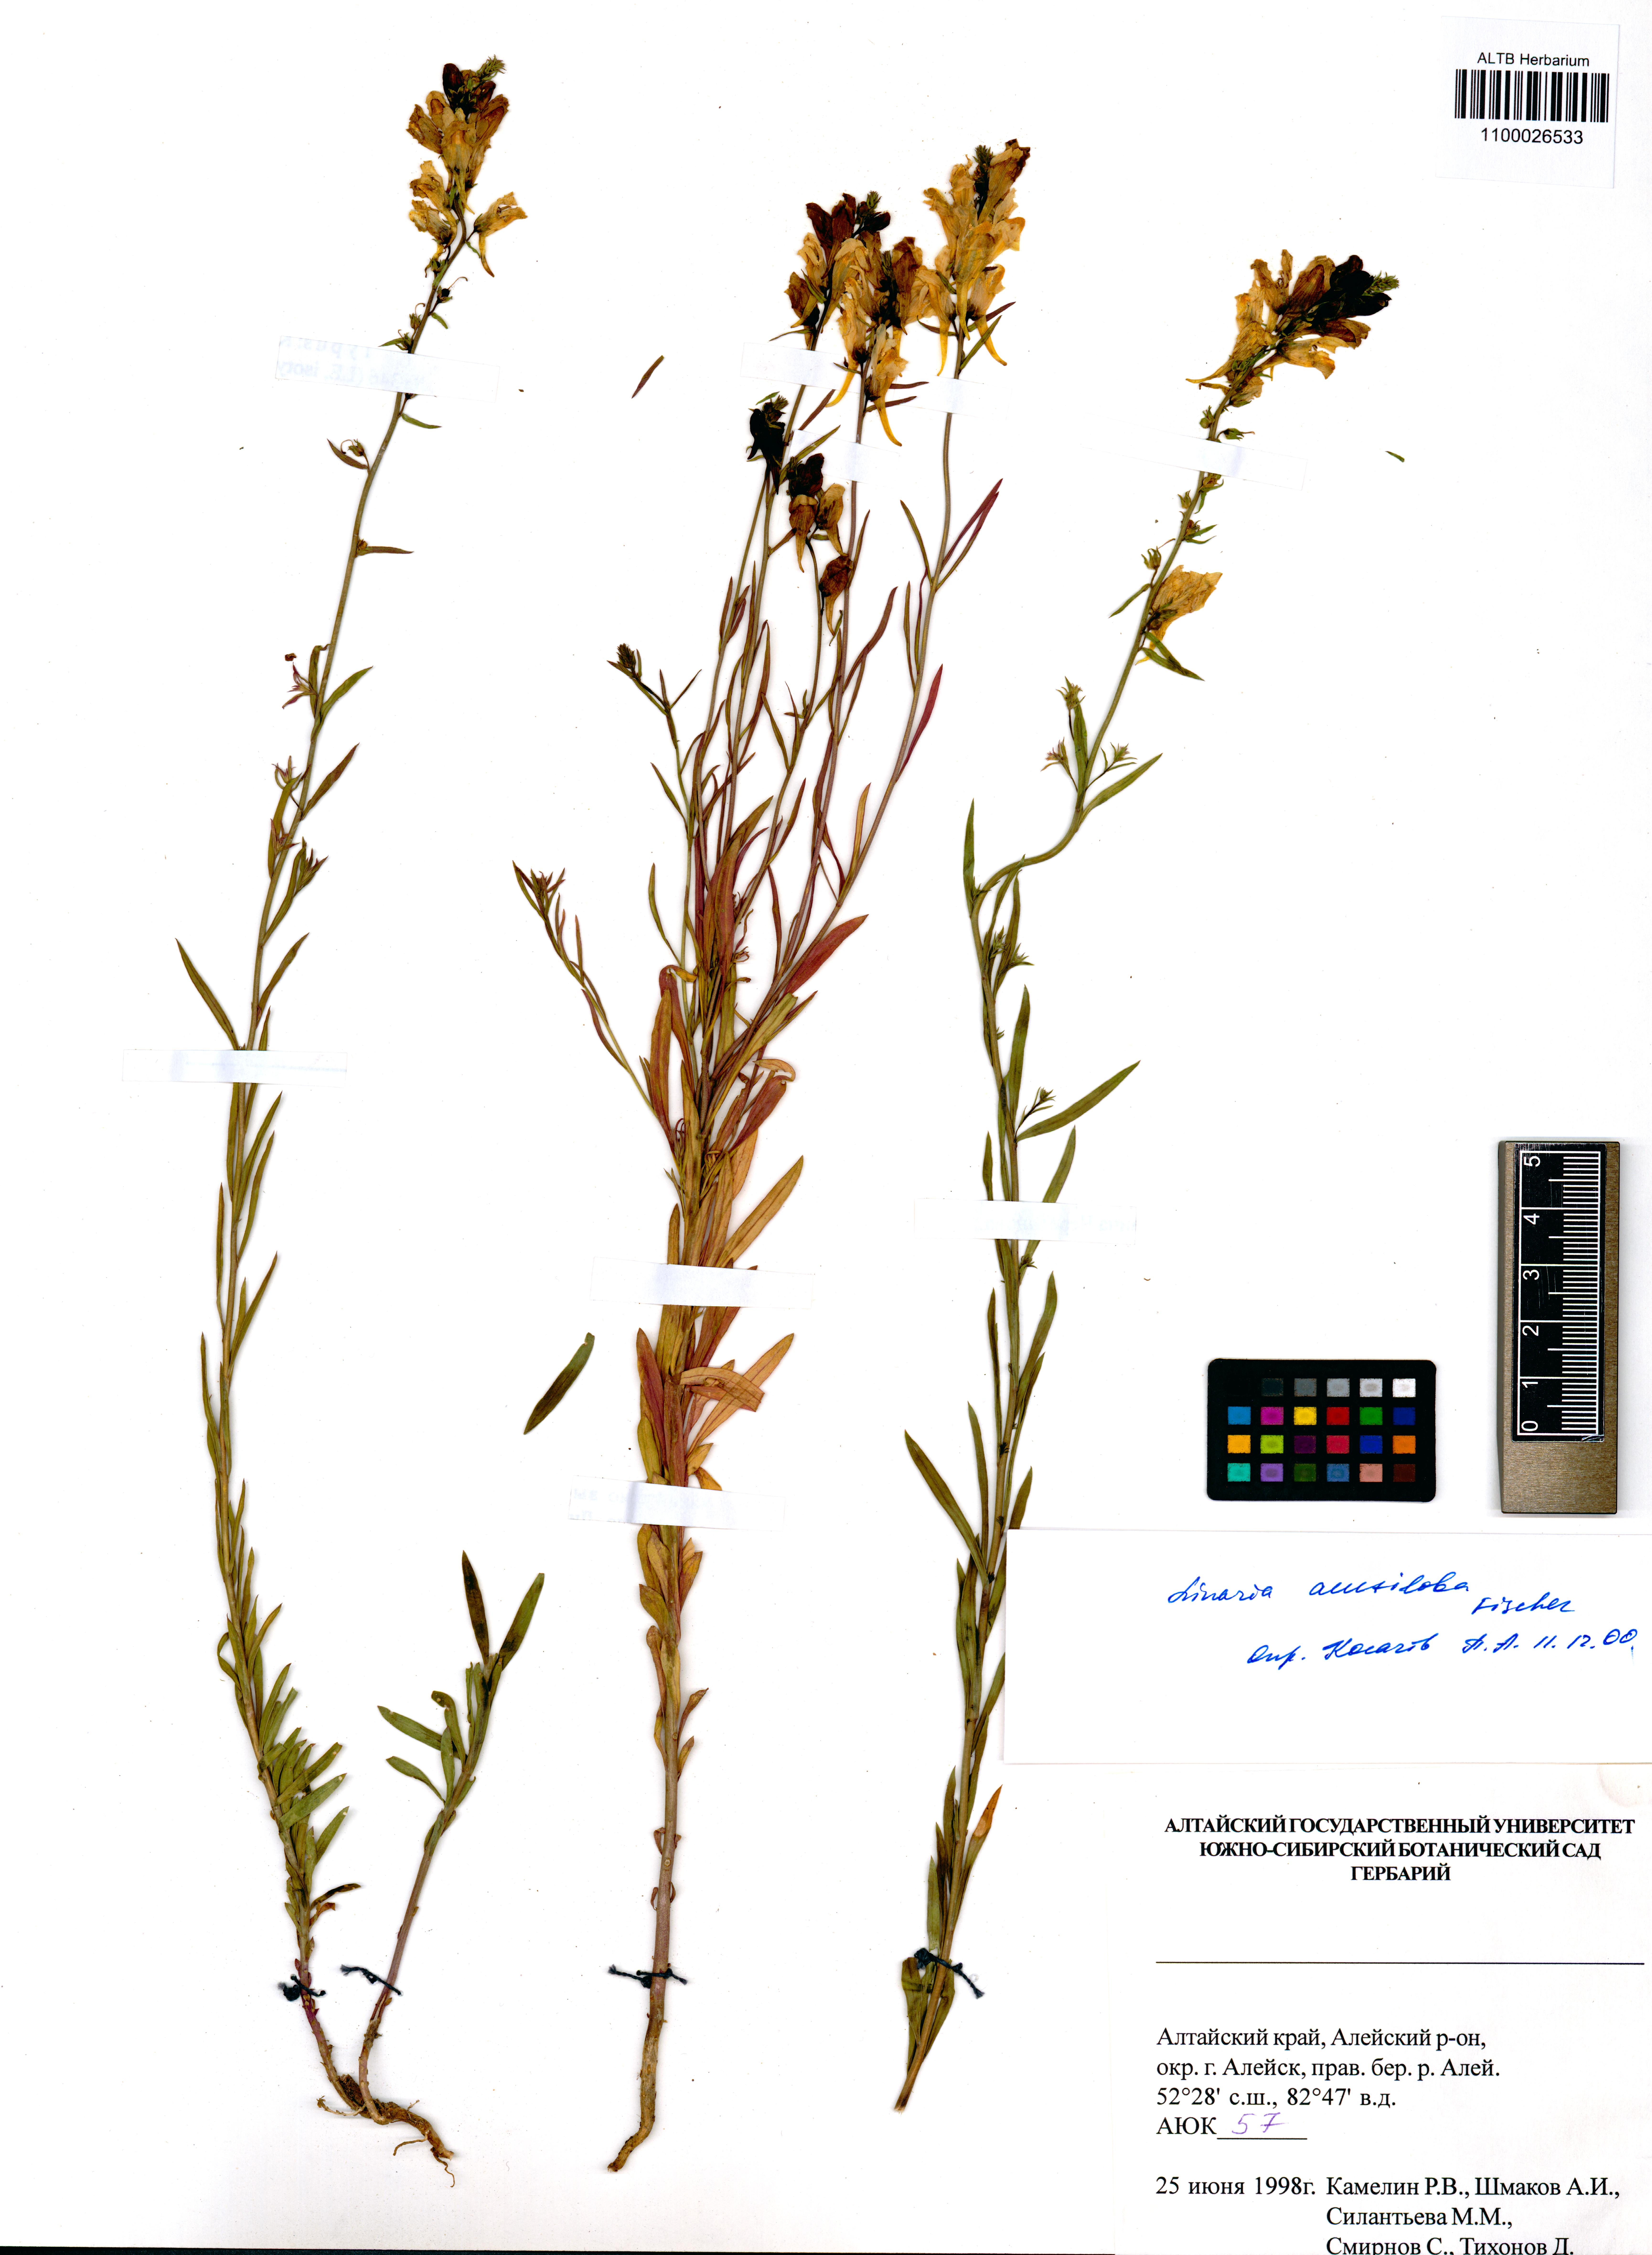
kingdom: Plantae
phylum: Tracheophyta
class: Magnoliopsida
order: Lamiales
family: Plantaginaceae
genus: Linaria
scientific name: Linaria acutiloba
